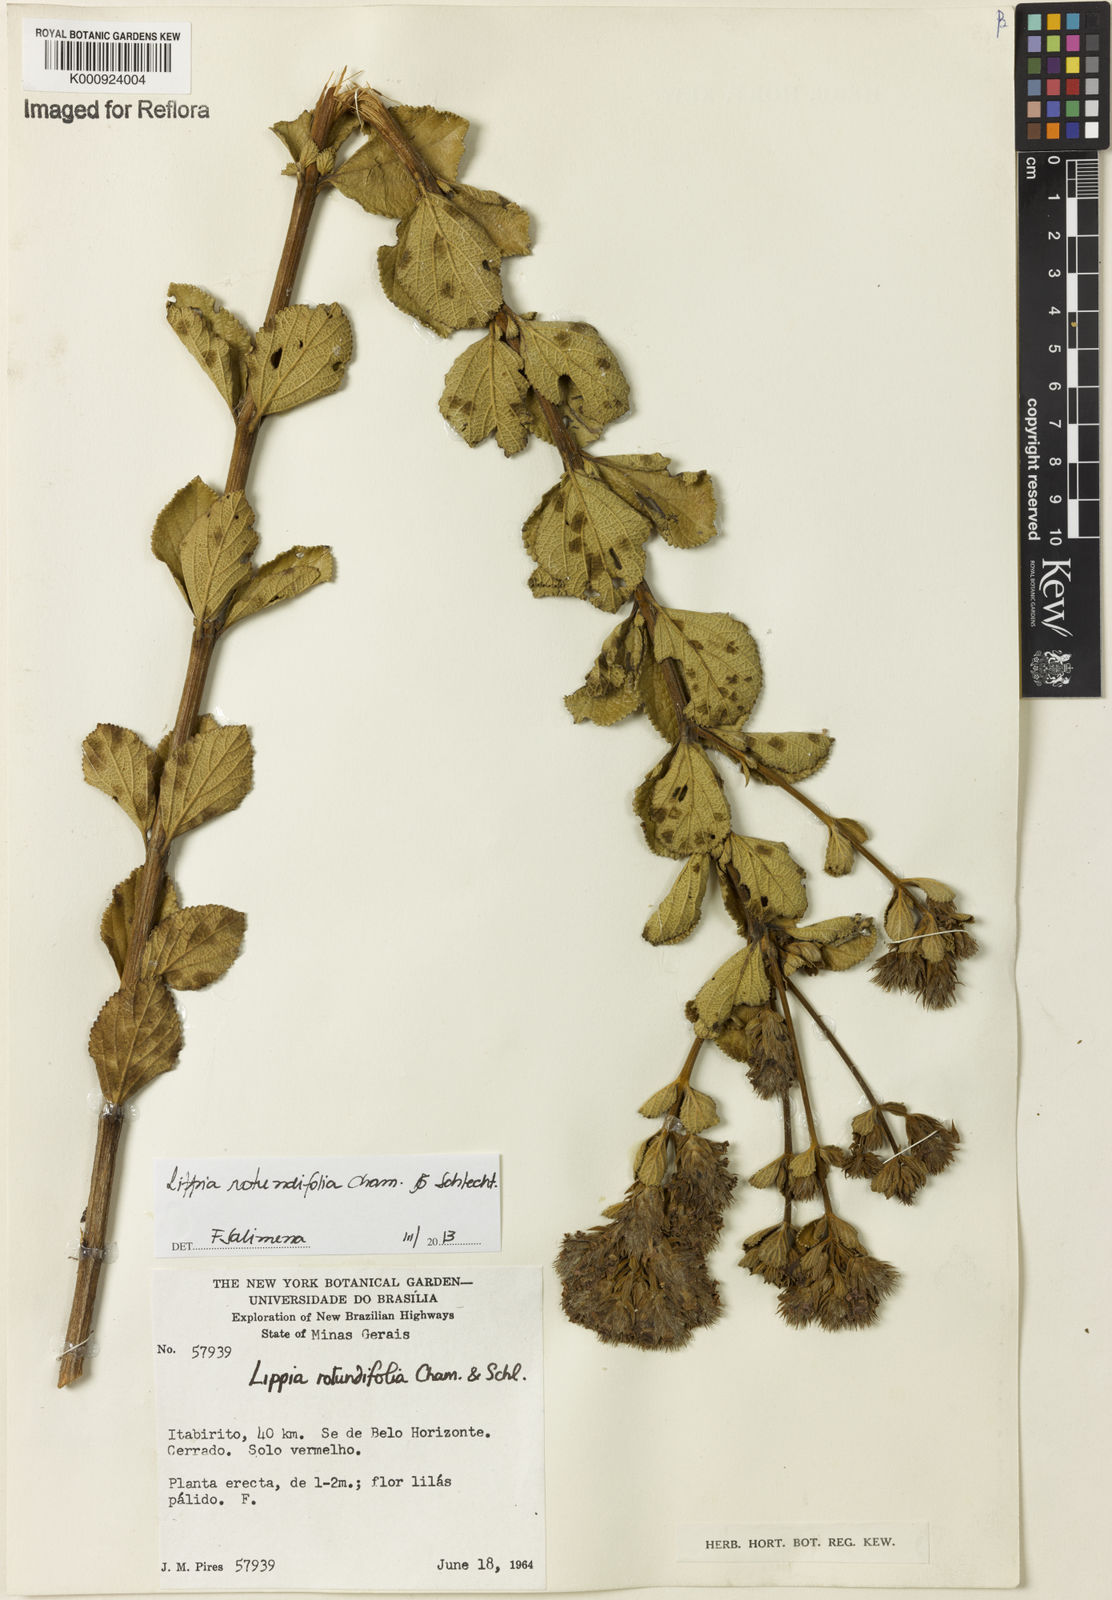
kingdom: Plantae
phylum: Tracheophyta
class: Magnoliopsida
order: Lamiales
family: Verbenaceae
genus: Lippia
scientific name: Lippia rotundifolia
